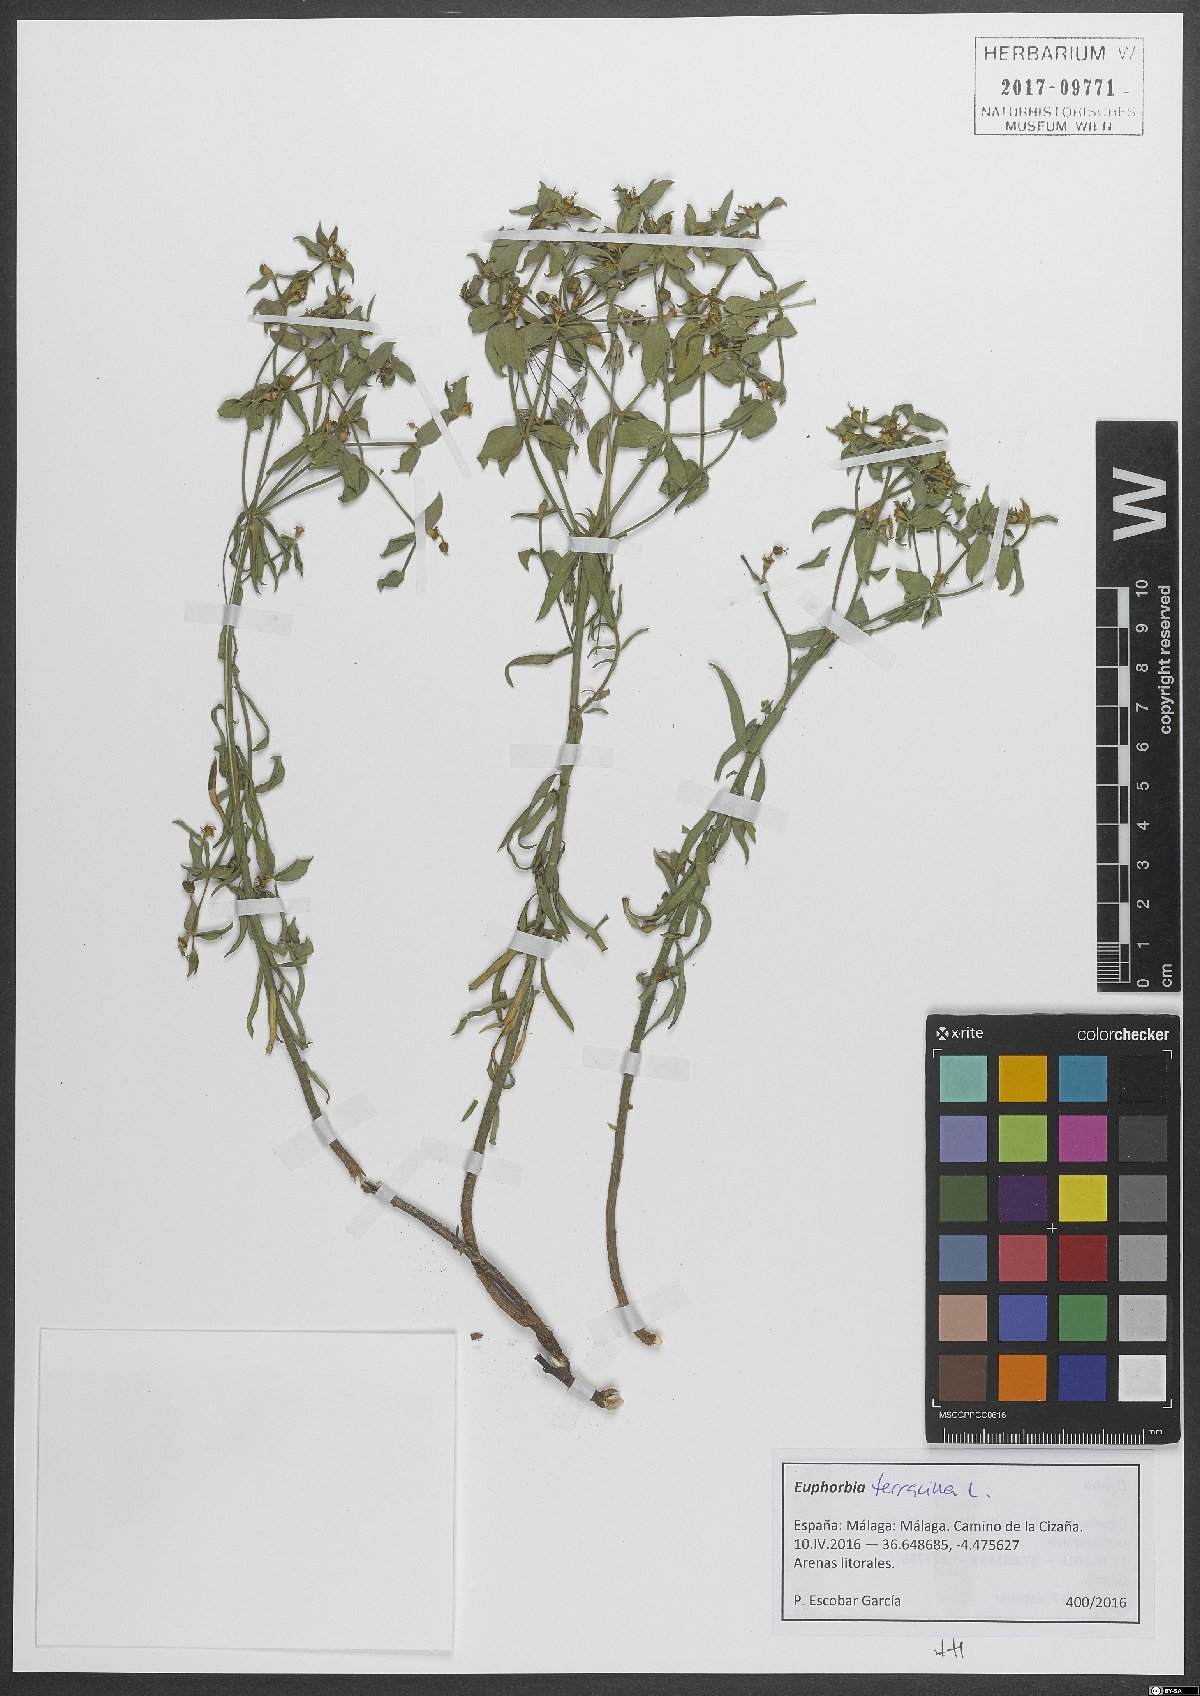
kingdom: Plantae
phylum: Tracheophyta
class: Magnoliopsida
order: Malpighiales
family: Euphorbiaceae
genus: Euphorbia
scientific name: Euphorbia terracina
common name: Geraldton carnation weed
